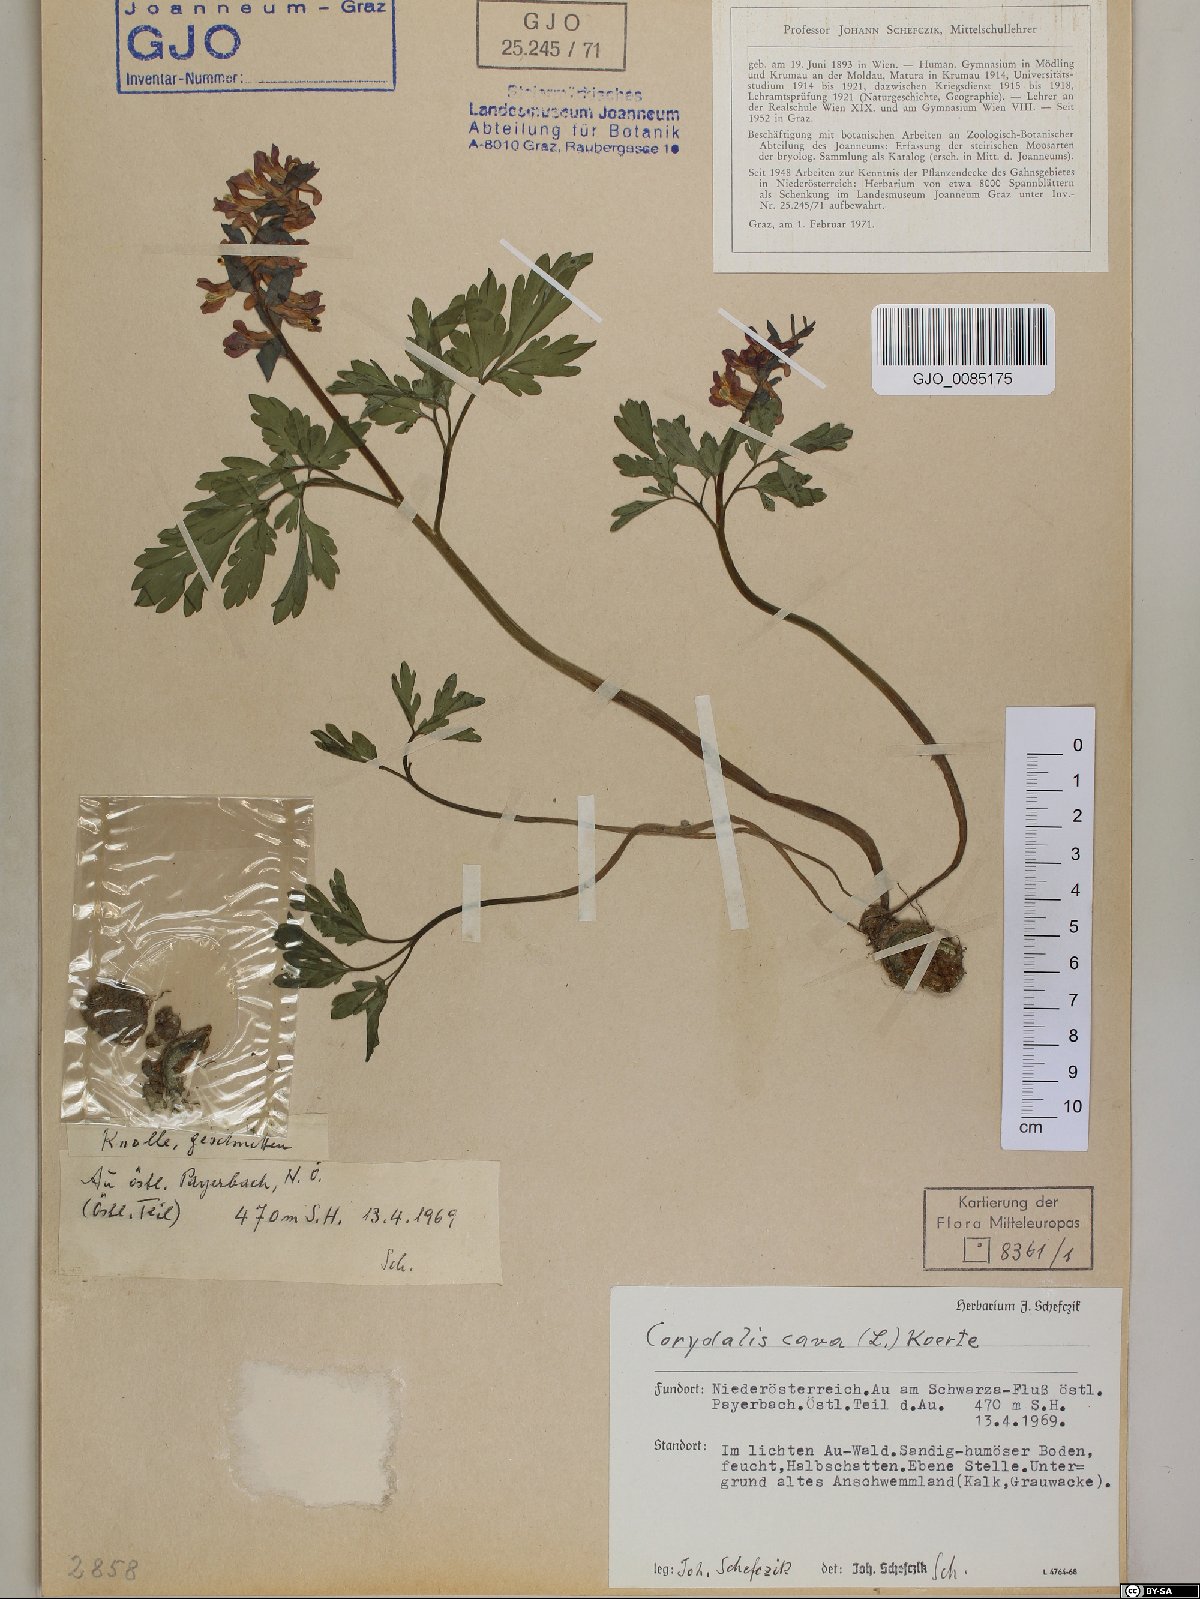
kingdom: Plantae
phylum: Tracheophyta
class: Magnoliopsida
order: Ranunculales
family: Papaveraceae
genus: Corydalis
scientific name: Corydalis cava
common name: Hollowroot
